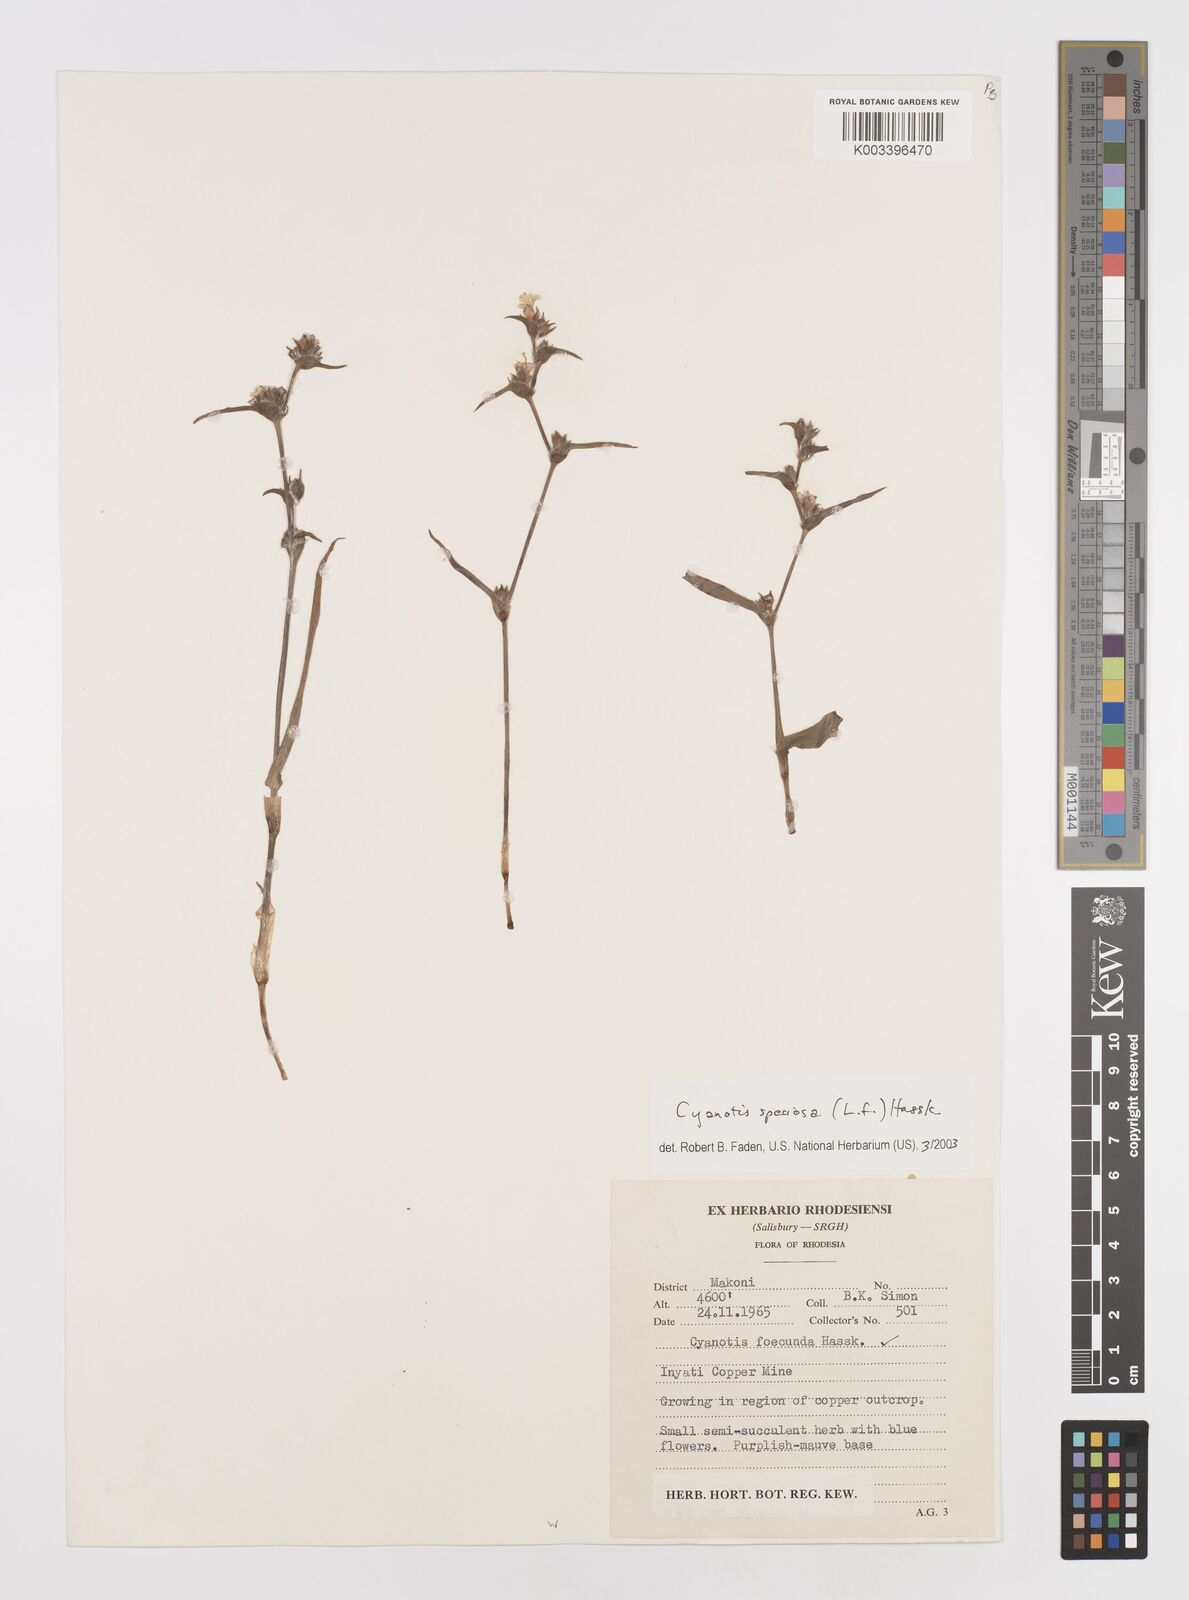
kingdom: Plantae
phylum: Tracheophyta
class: Liliopsida
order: Commelinales
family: Commelinaceae
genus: Cyanotis
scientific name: Cyanotis speciosa
